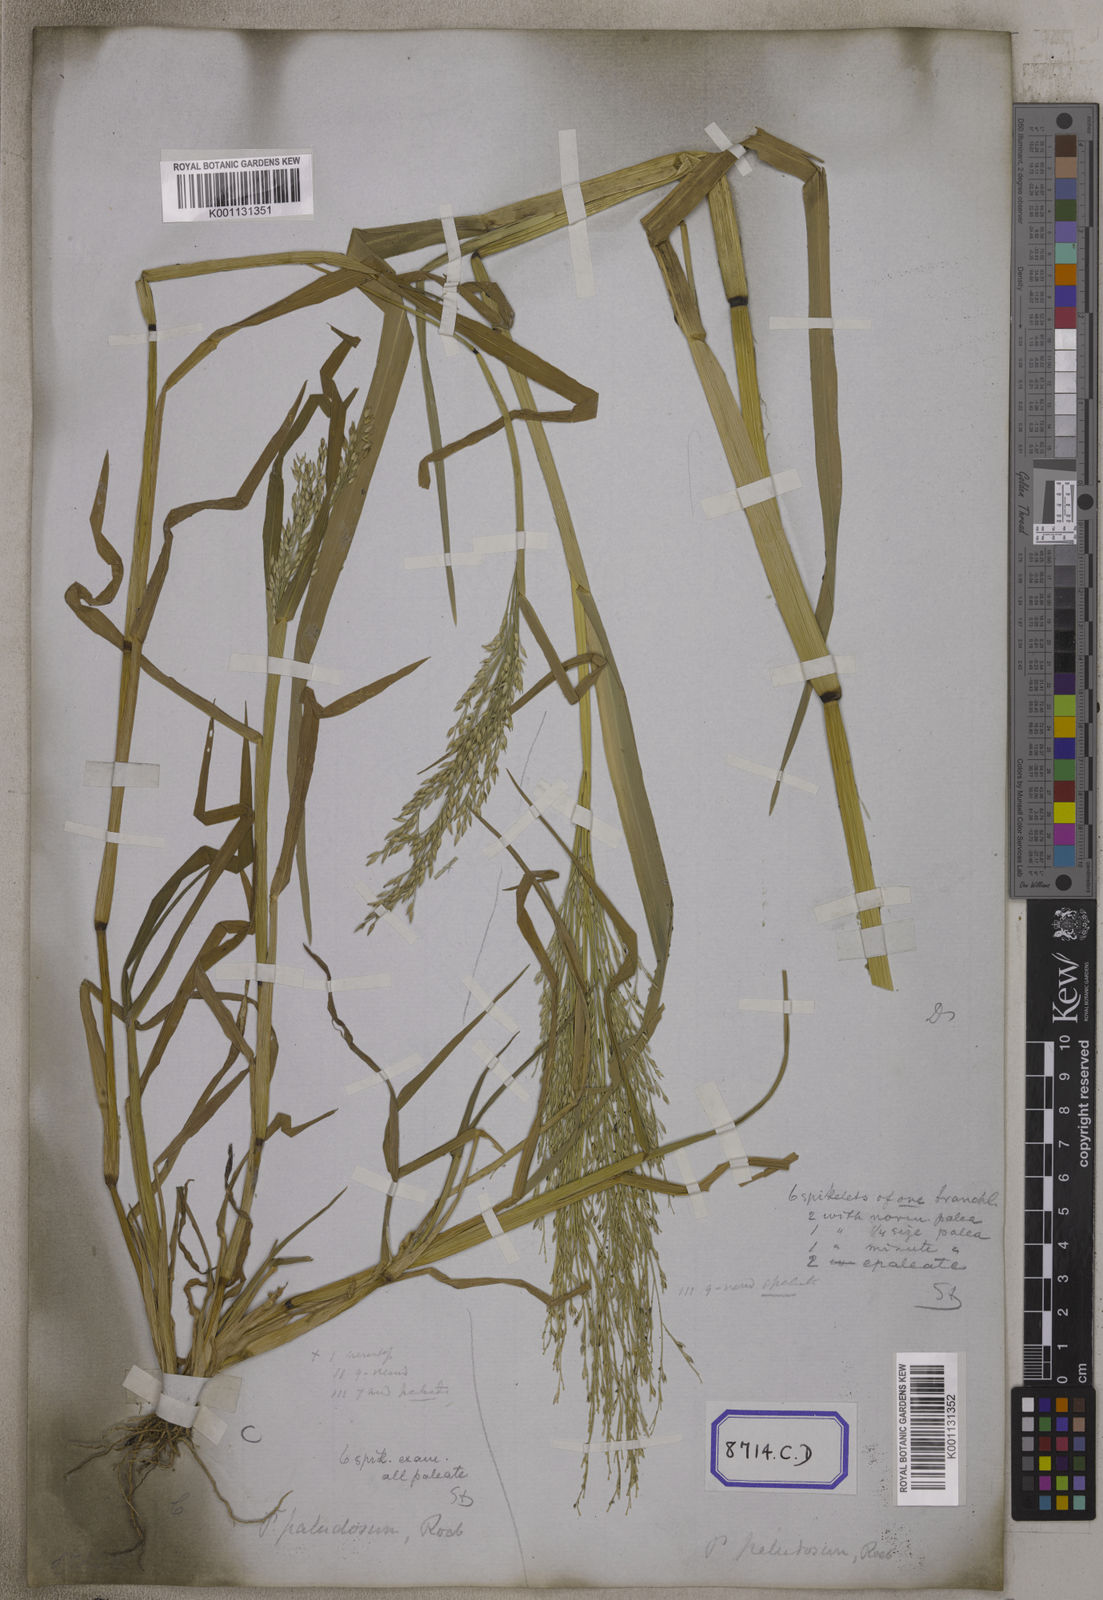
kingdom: Plantae
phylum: Tracheophyta
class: Liliopsida
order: Poales
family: Poaceae
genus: Panicum
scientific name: Panicum
